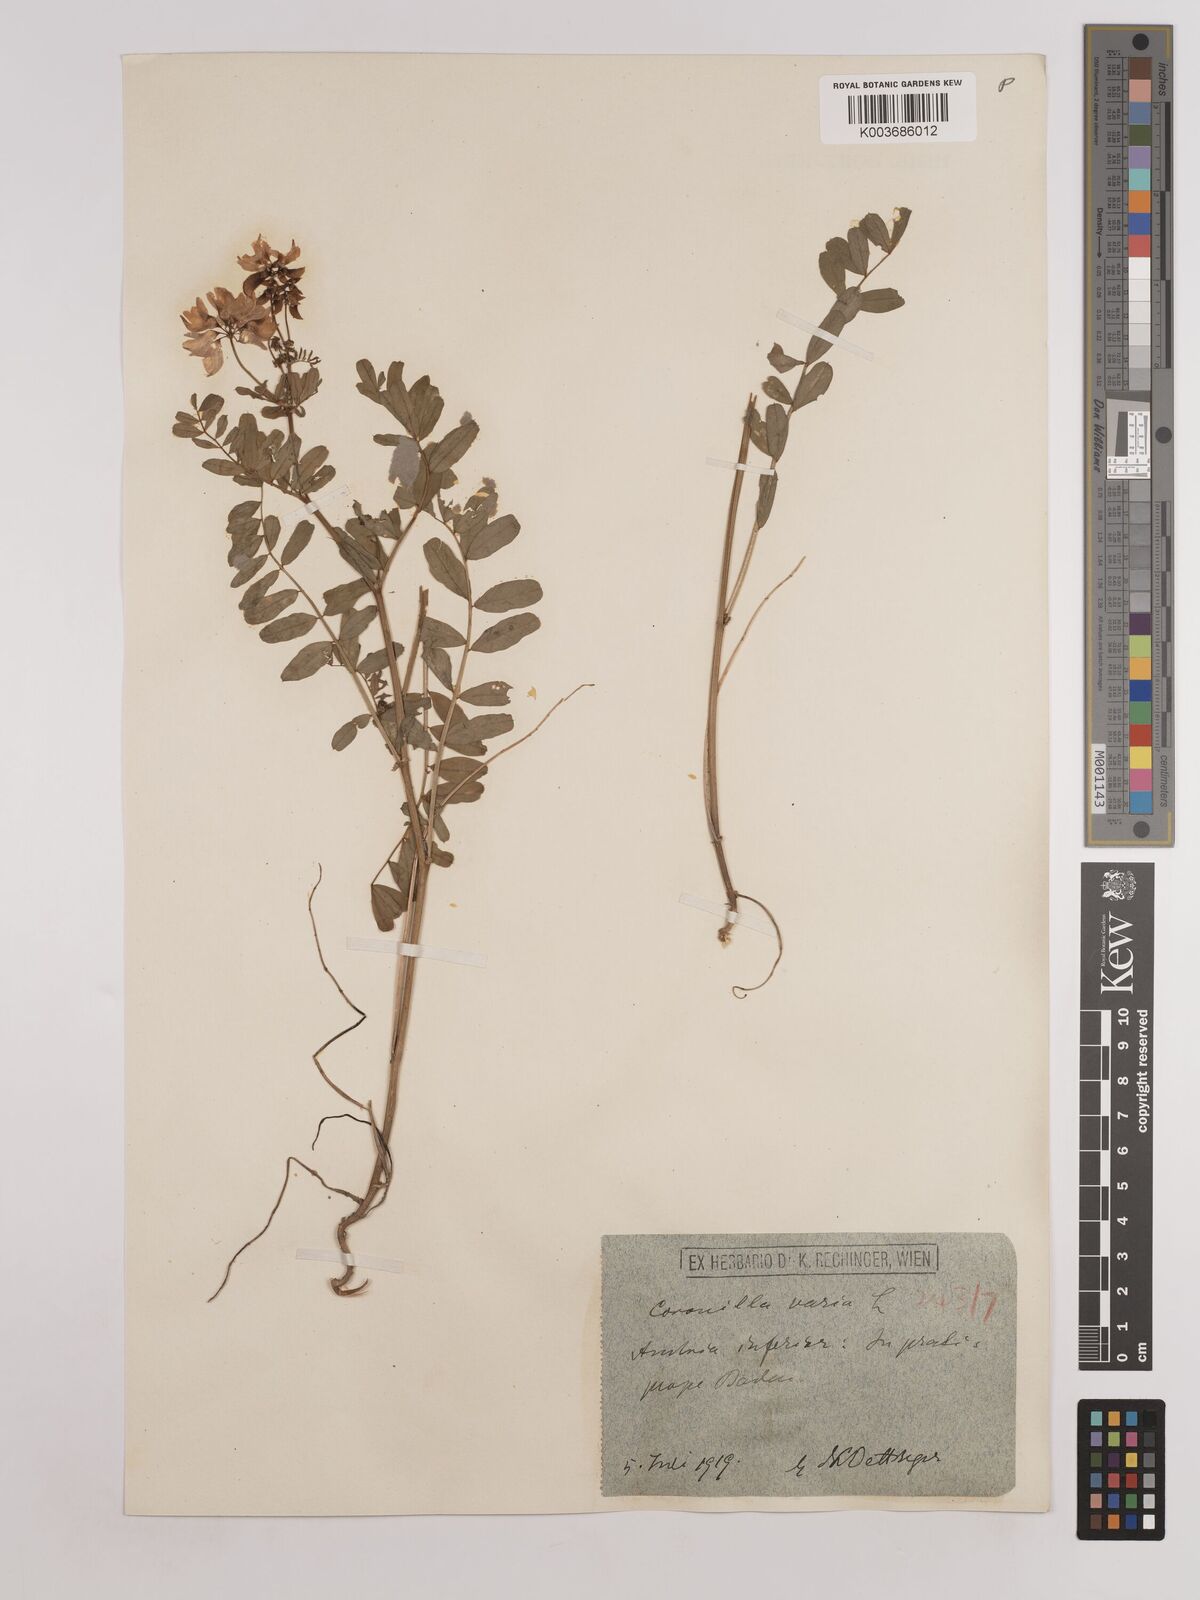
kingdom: Plantae
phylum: Tracheophyta
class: Magnoliopsida
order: Fabales
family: Fabaceae
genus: Coronilla
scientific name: Coronilla varia
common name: Crownvetch
